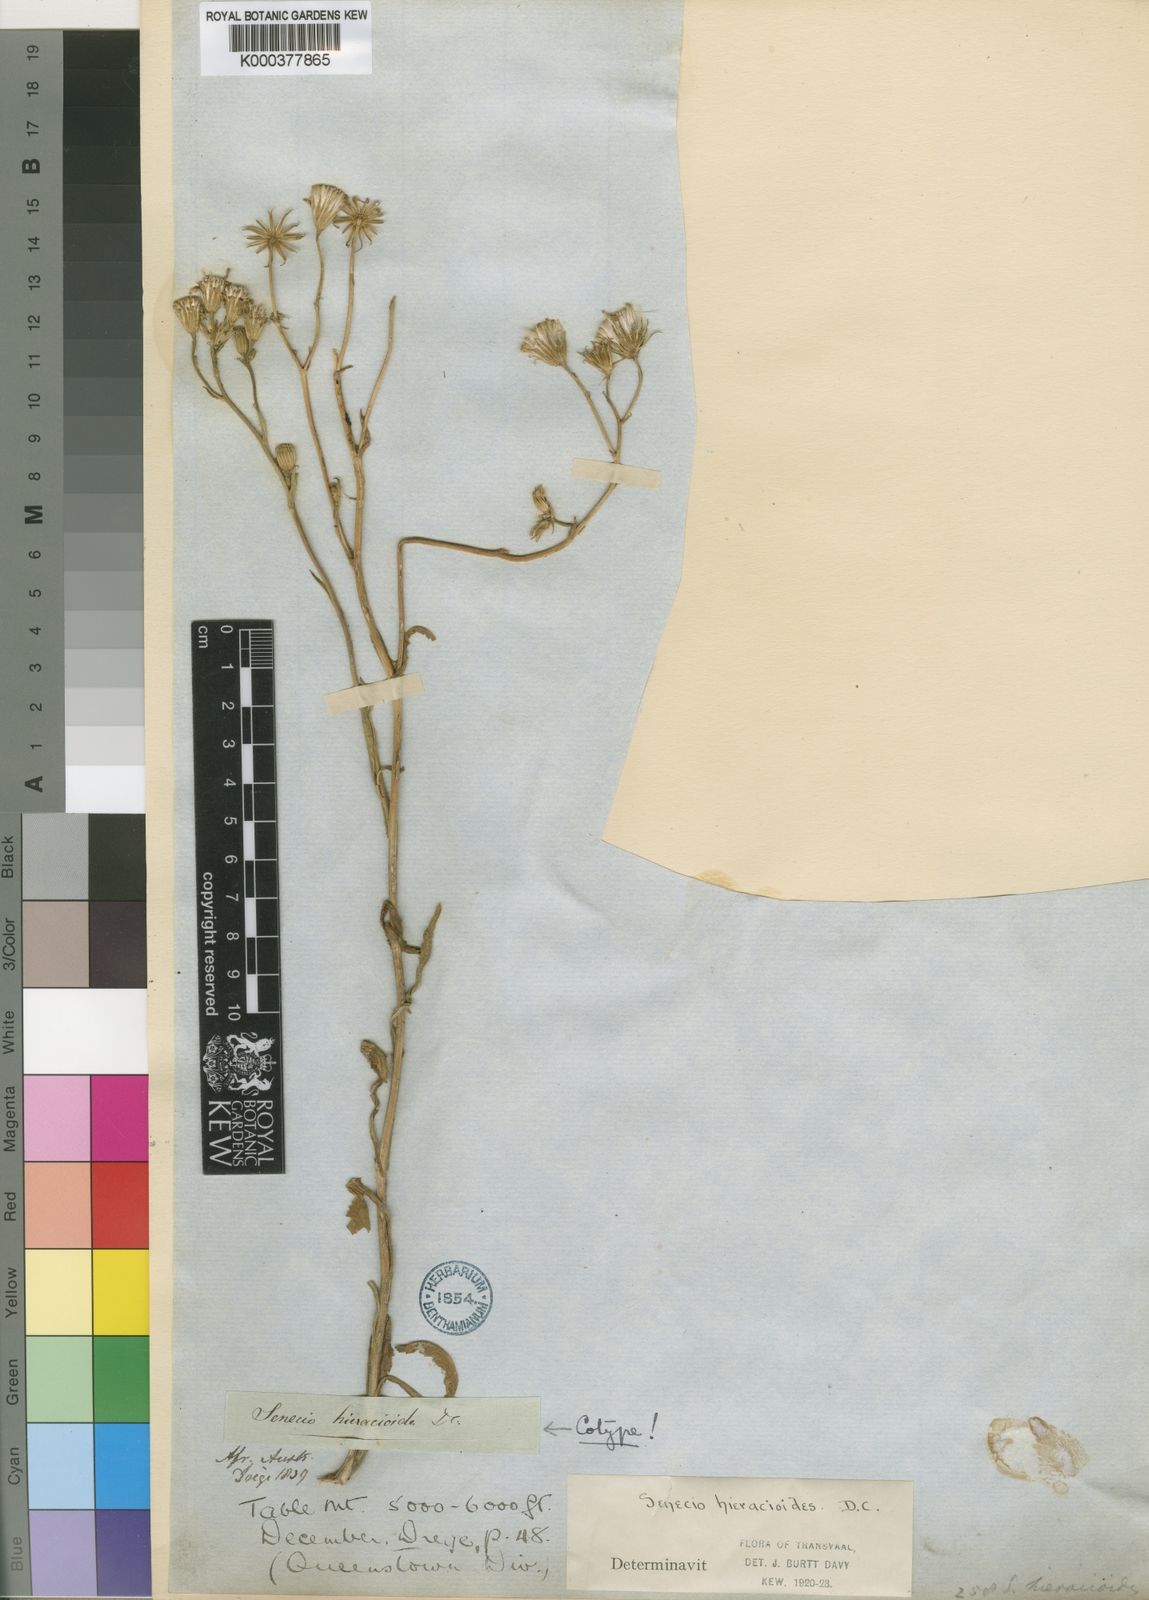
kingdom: Plantae
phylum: Tracheophyta
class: Magnoliopsida
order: Asterales
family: Asteraceae
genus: Senecio
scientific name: Senecio hieracioides
